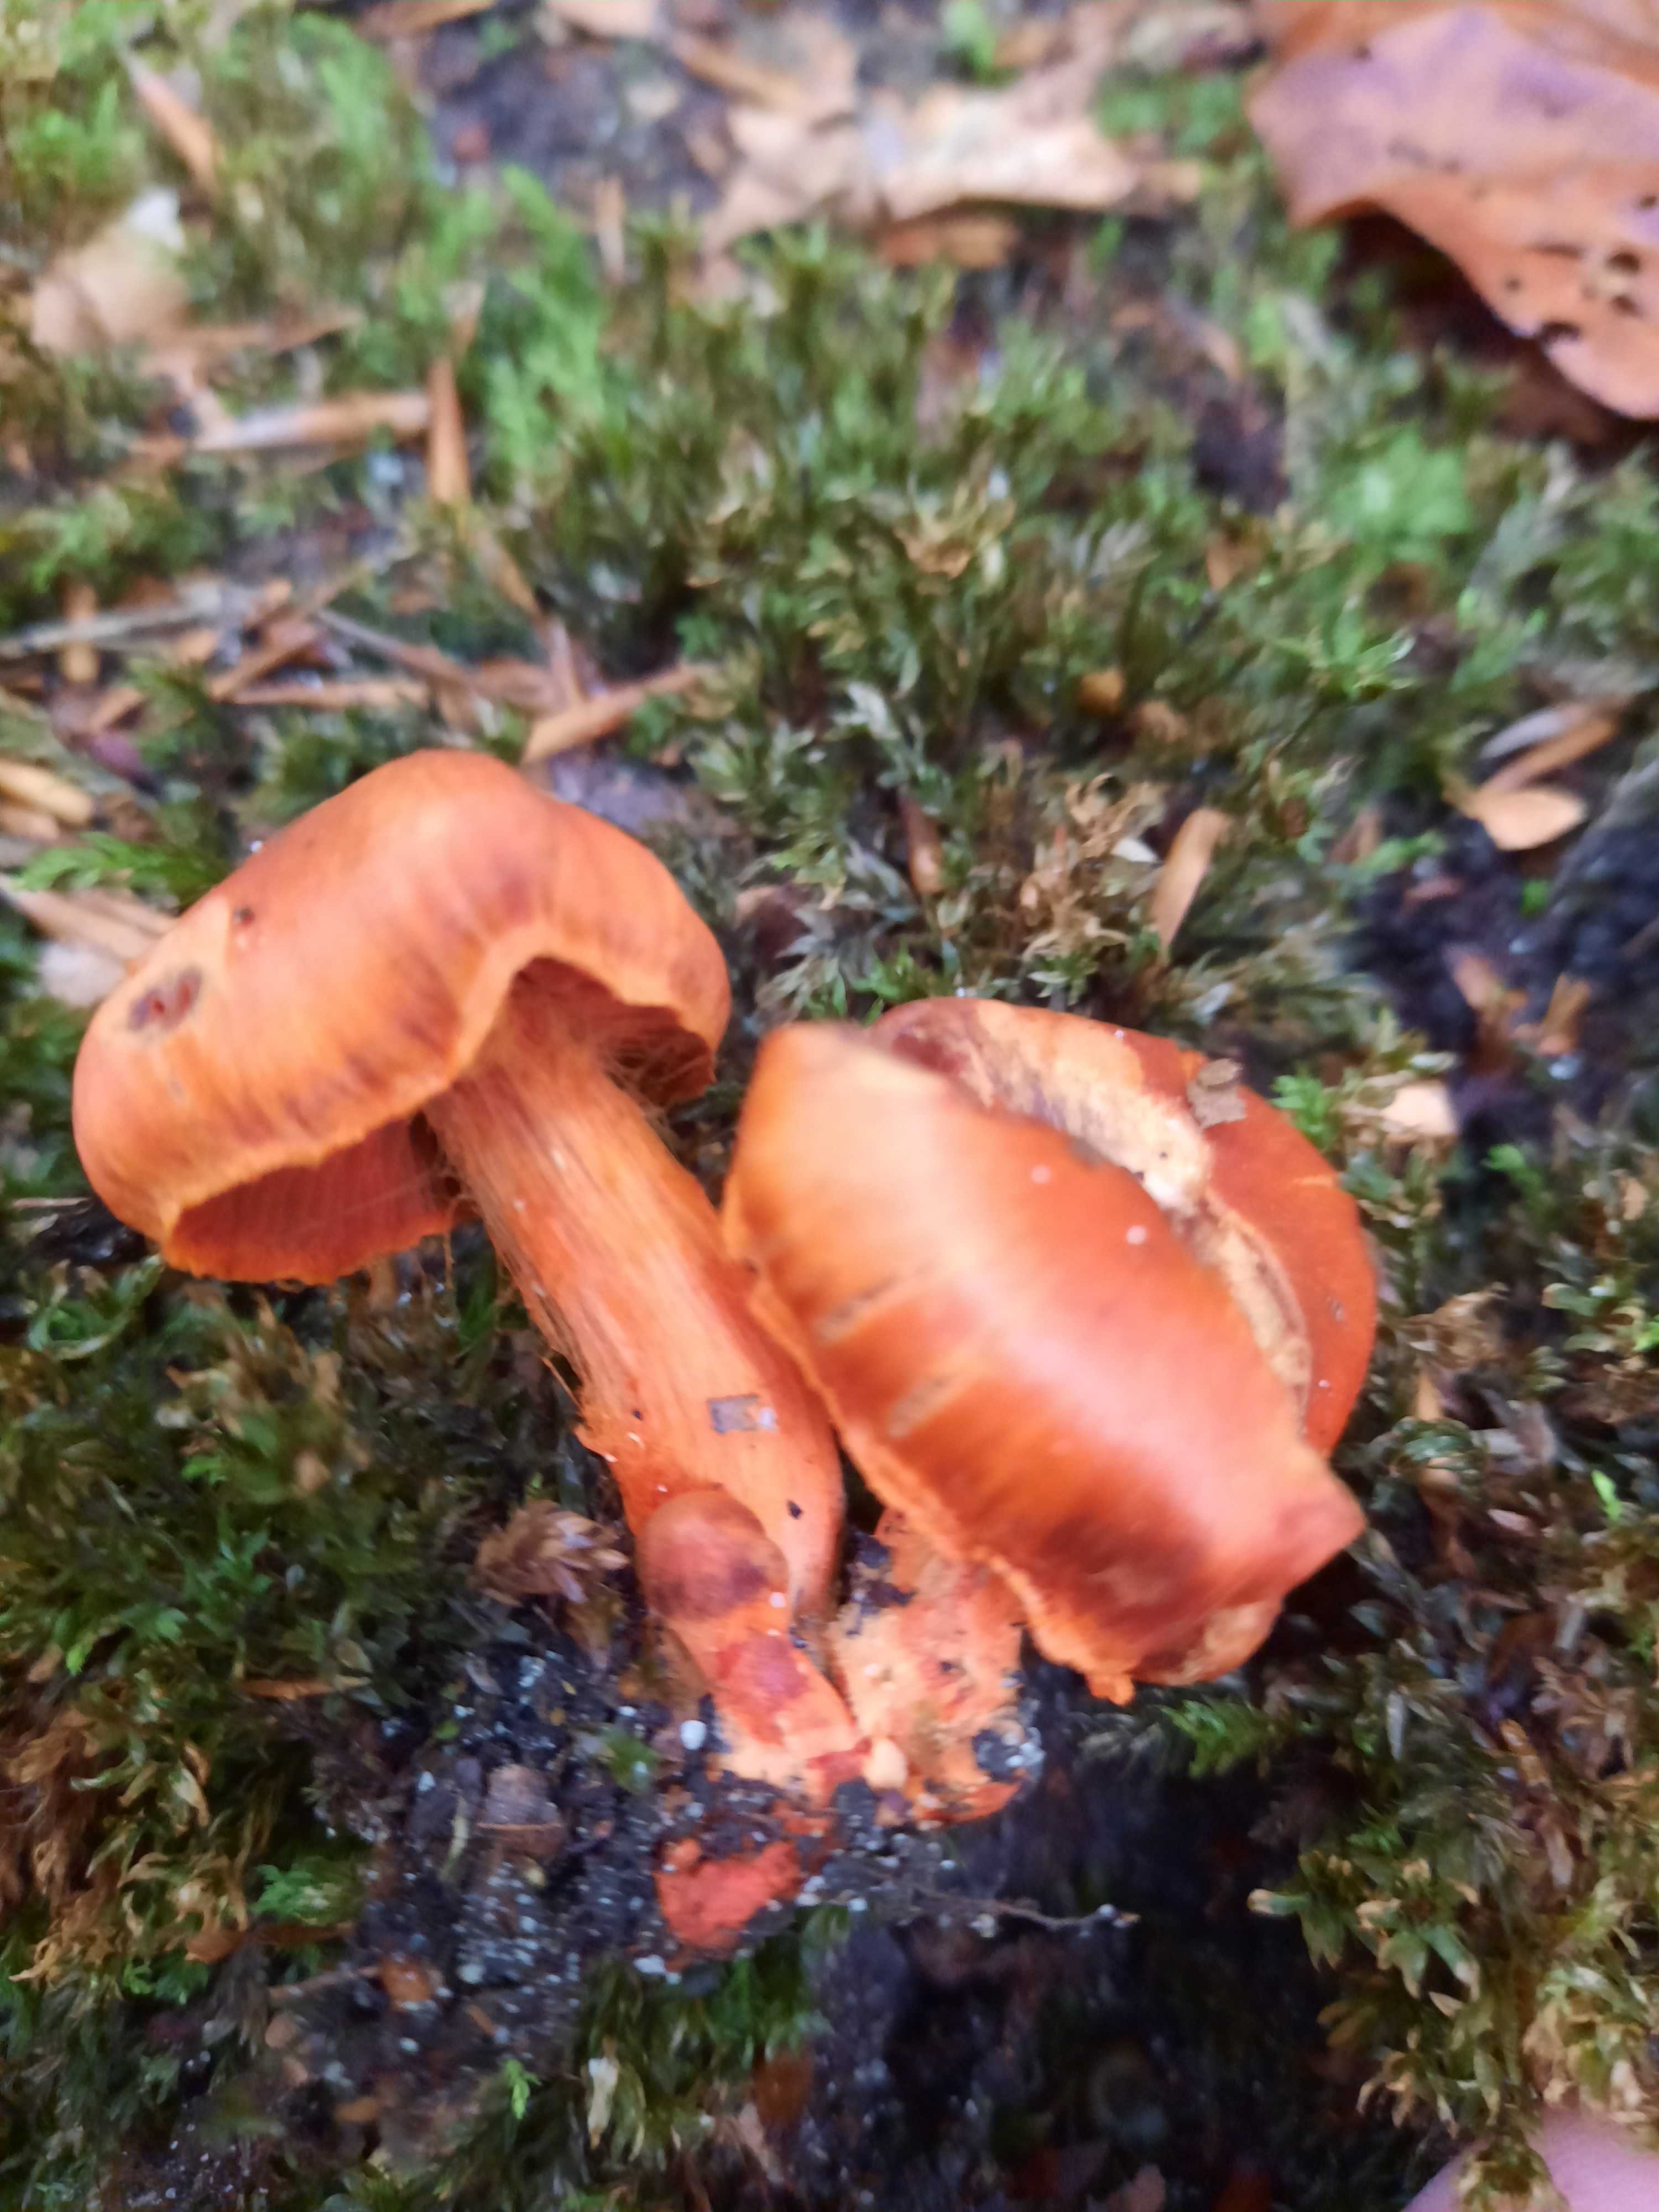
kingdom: Fungi
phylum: Basidiomycota
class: Agaricomycetes
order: Agaricales
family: Cortinariaceae
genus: Cortinarius
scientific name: Cortinarius cinnabarinus
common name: cinnober-slørhat
